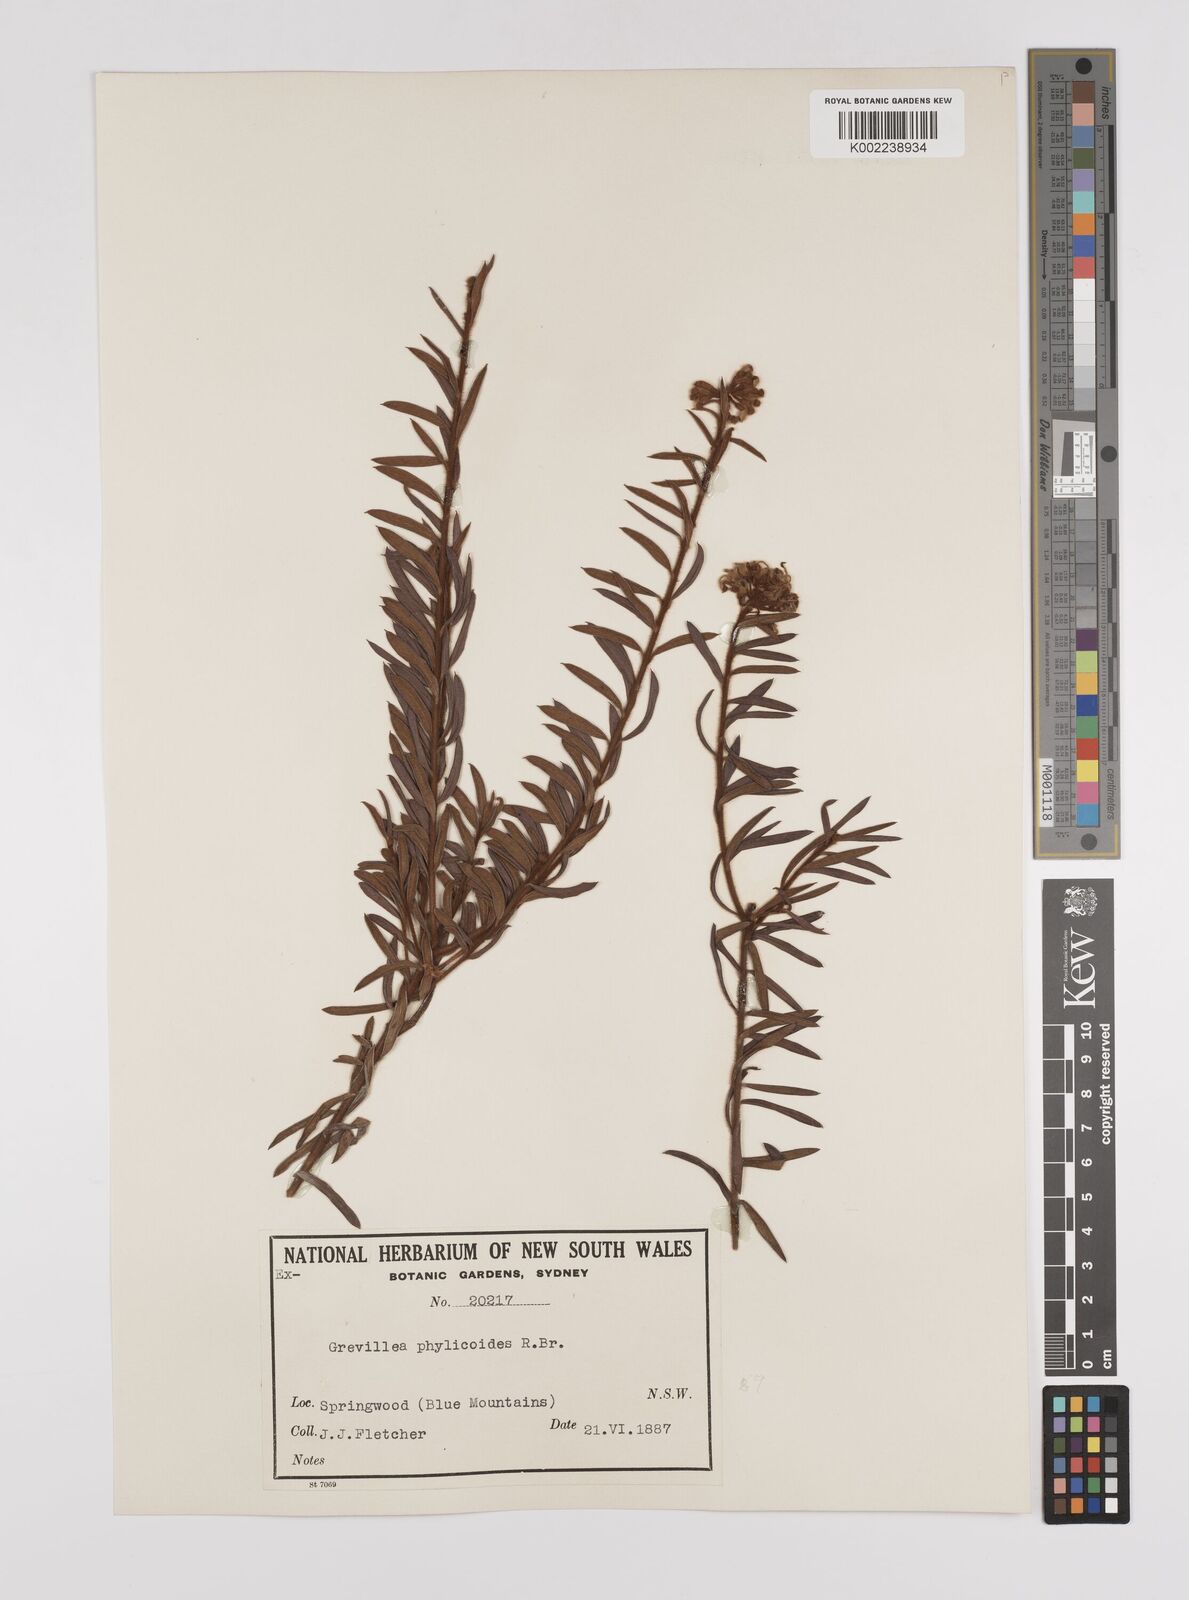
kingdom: Plantae
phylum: Tracheophyta
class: Magnoliopsida
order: Proteales
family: Proteaceae
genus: Grevillea
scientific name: Grevillea phylicoides
